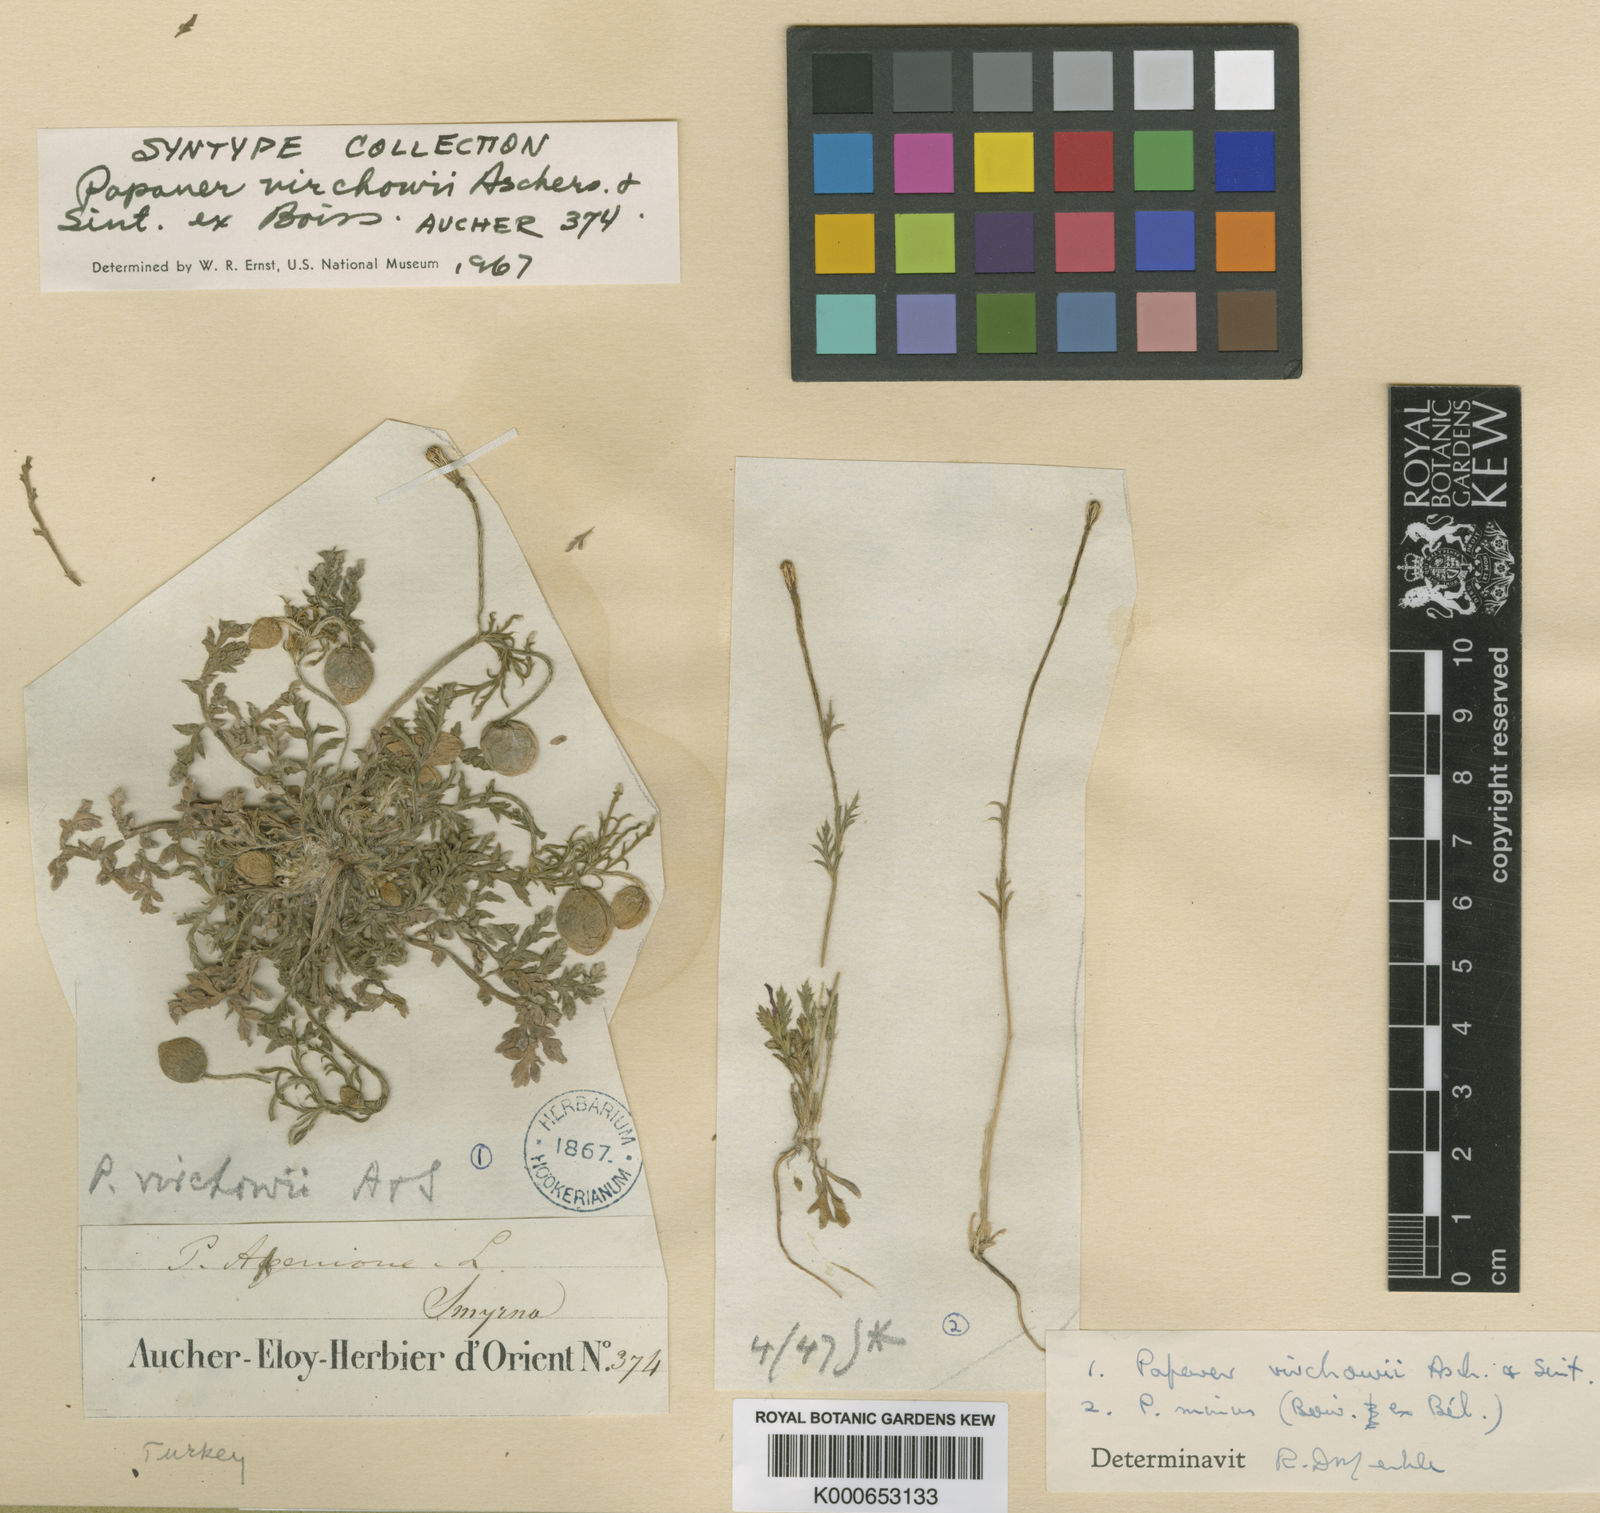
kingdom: Plantae
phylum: Tracheophyta
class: Magnoliopsida
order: Ranunculales
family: Papaveraceae
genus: Roemeria
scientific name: Roemeria virchowii
